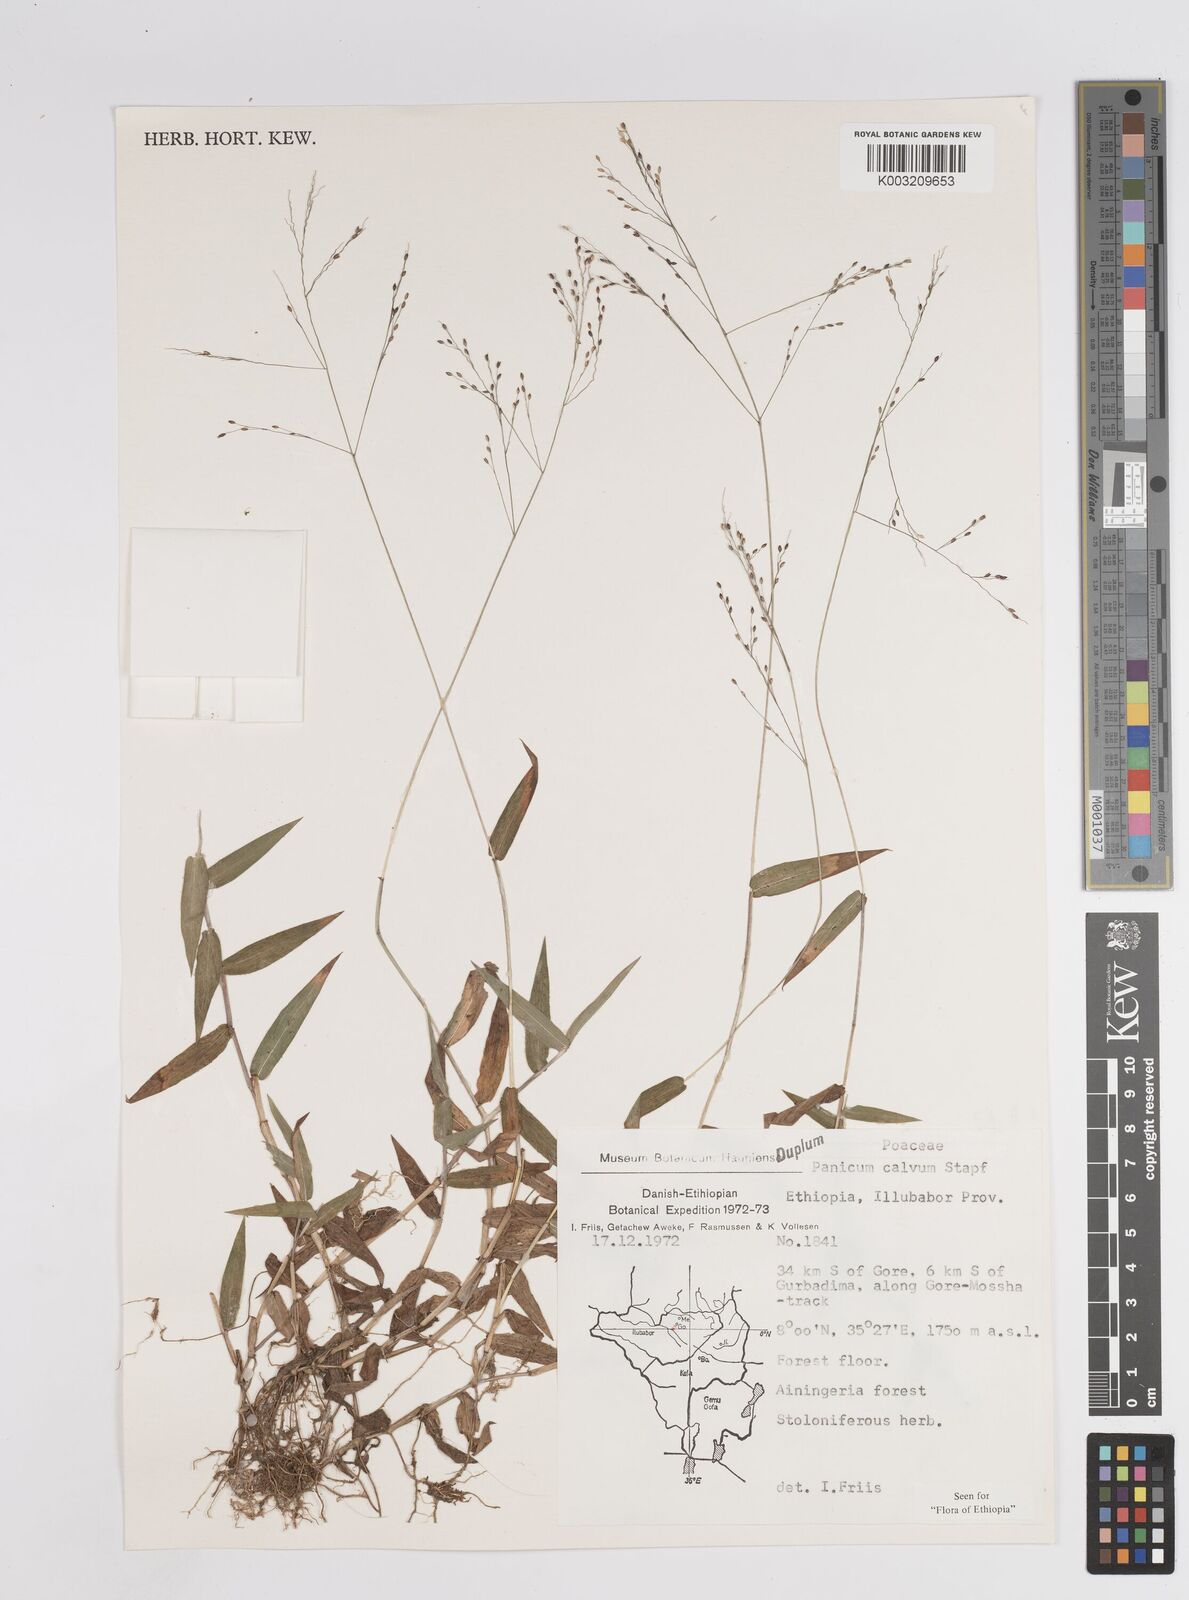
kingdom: Plantae
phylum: Tracheophyta
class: Liliopsida
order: Poales
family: Poaceae
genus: Panicum
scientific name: Panicum calvum
